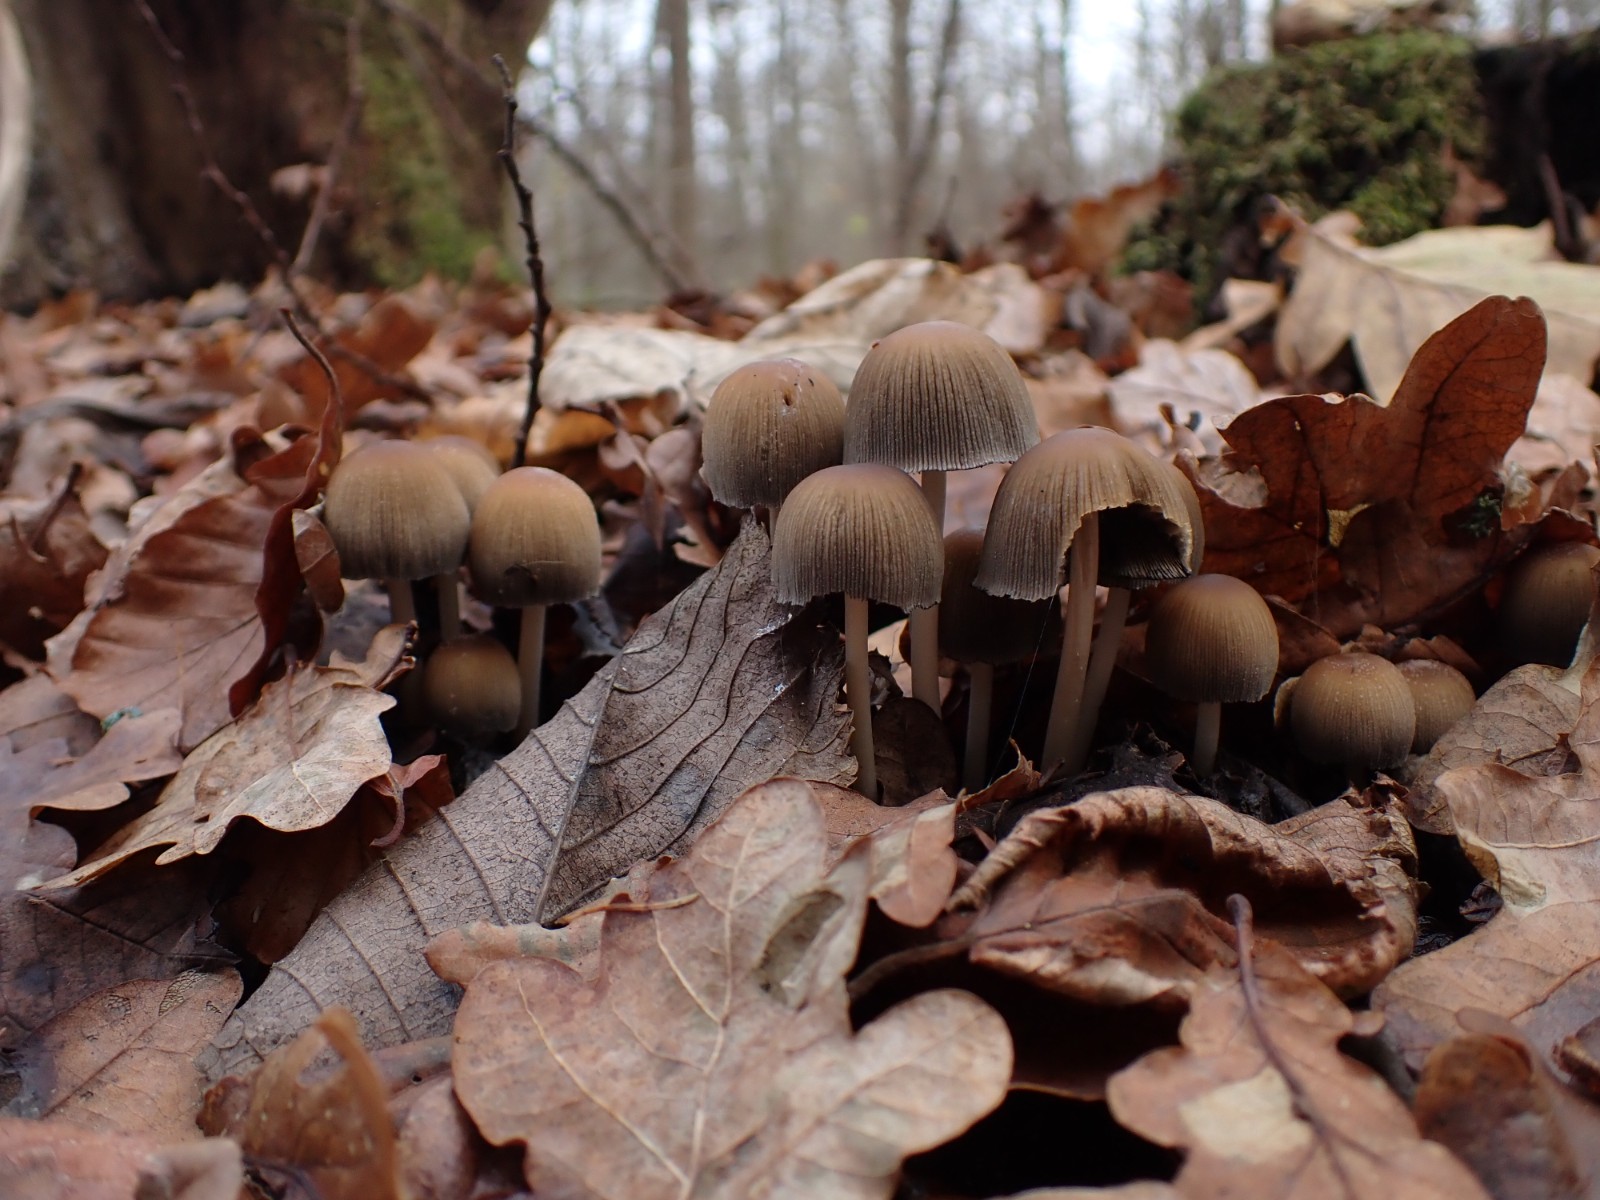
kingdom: Fungi
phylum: Basidiomycota
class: Agaricomycetes
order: Agaricales
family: Psathyrellaceae
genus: Coprinellus
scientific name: Coprinellus micaceus
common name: glimmer-blækhat
